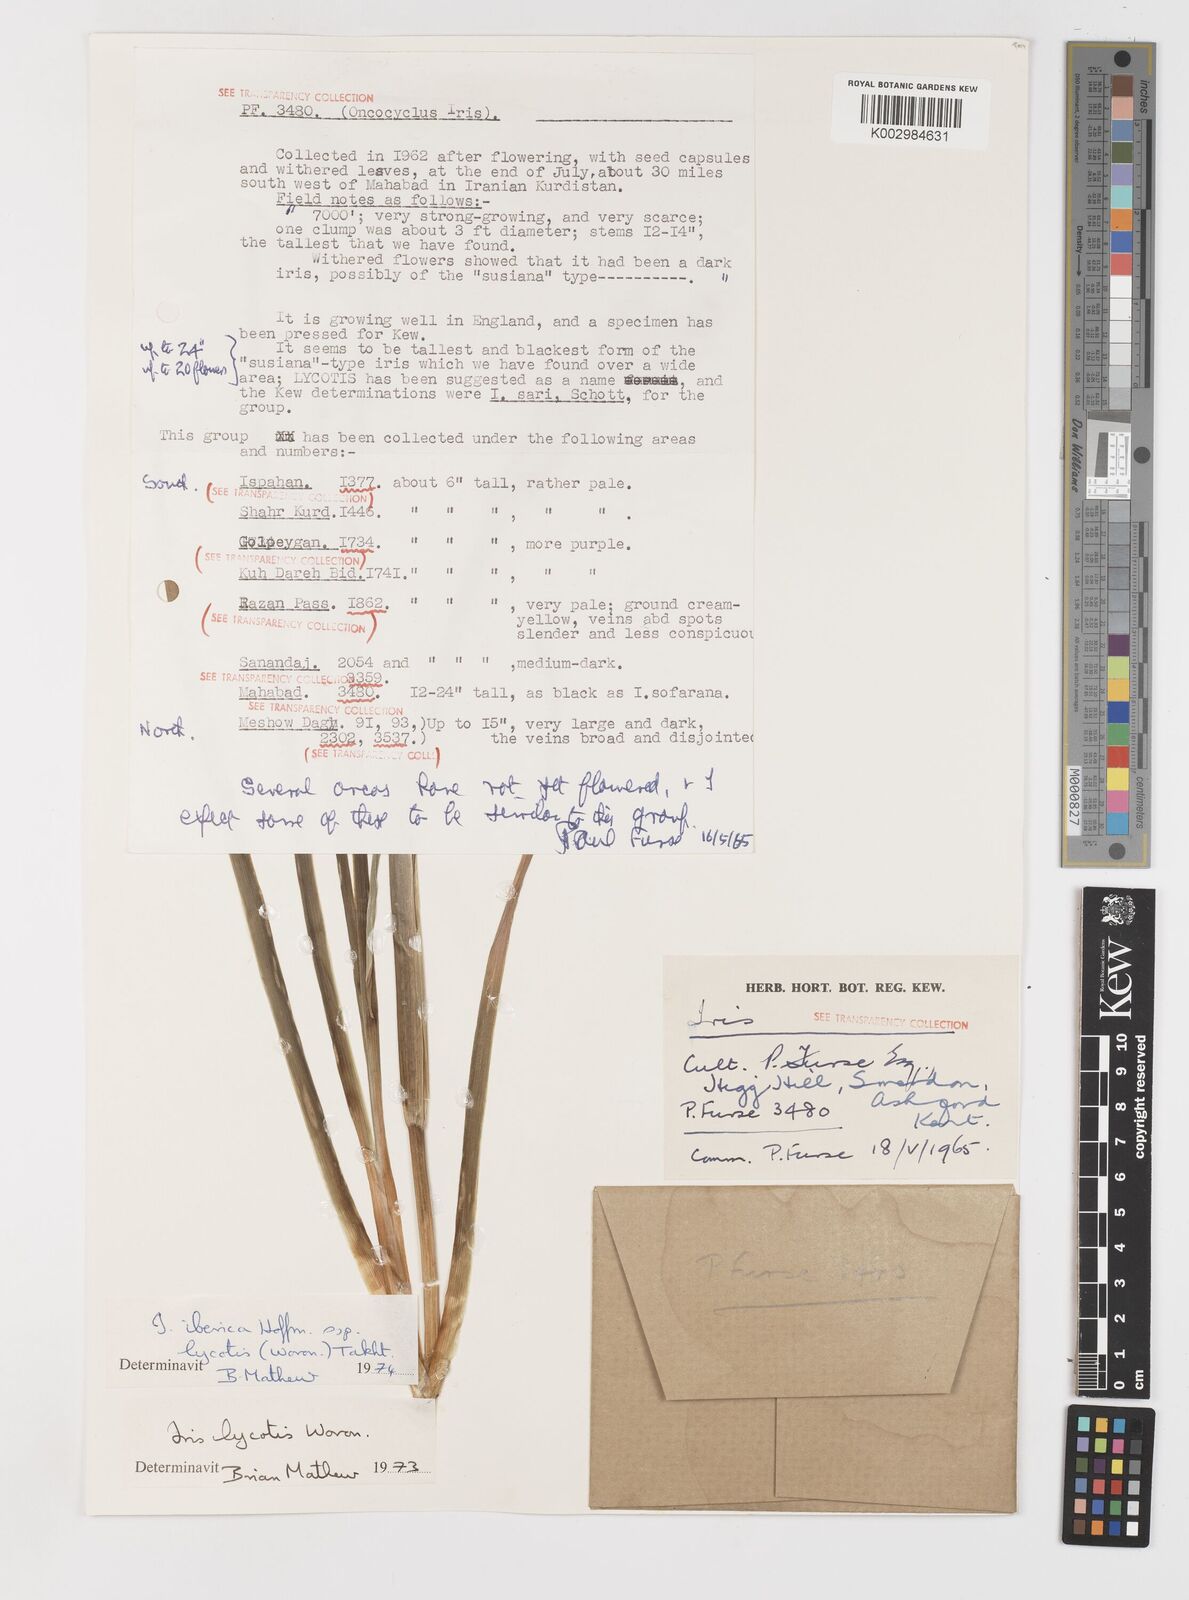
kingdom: Plantae
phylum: Tracheophyta
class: Liliopsida
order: Asparagales
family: Iridaceae
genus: Iris
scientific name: Iris lycotis
